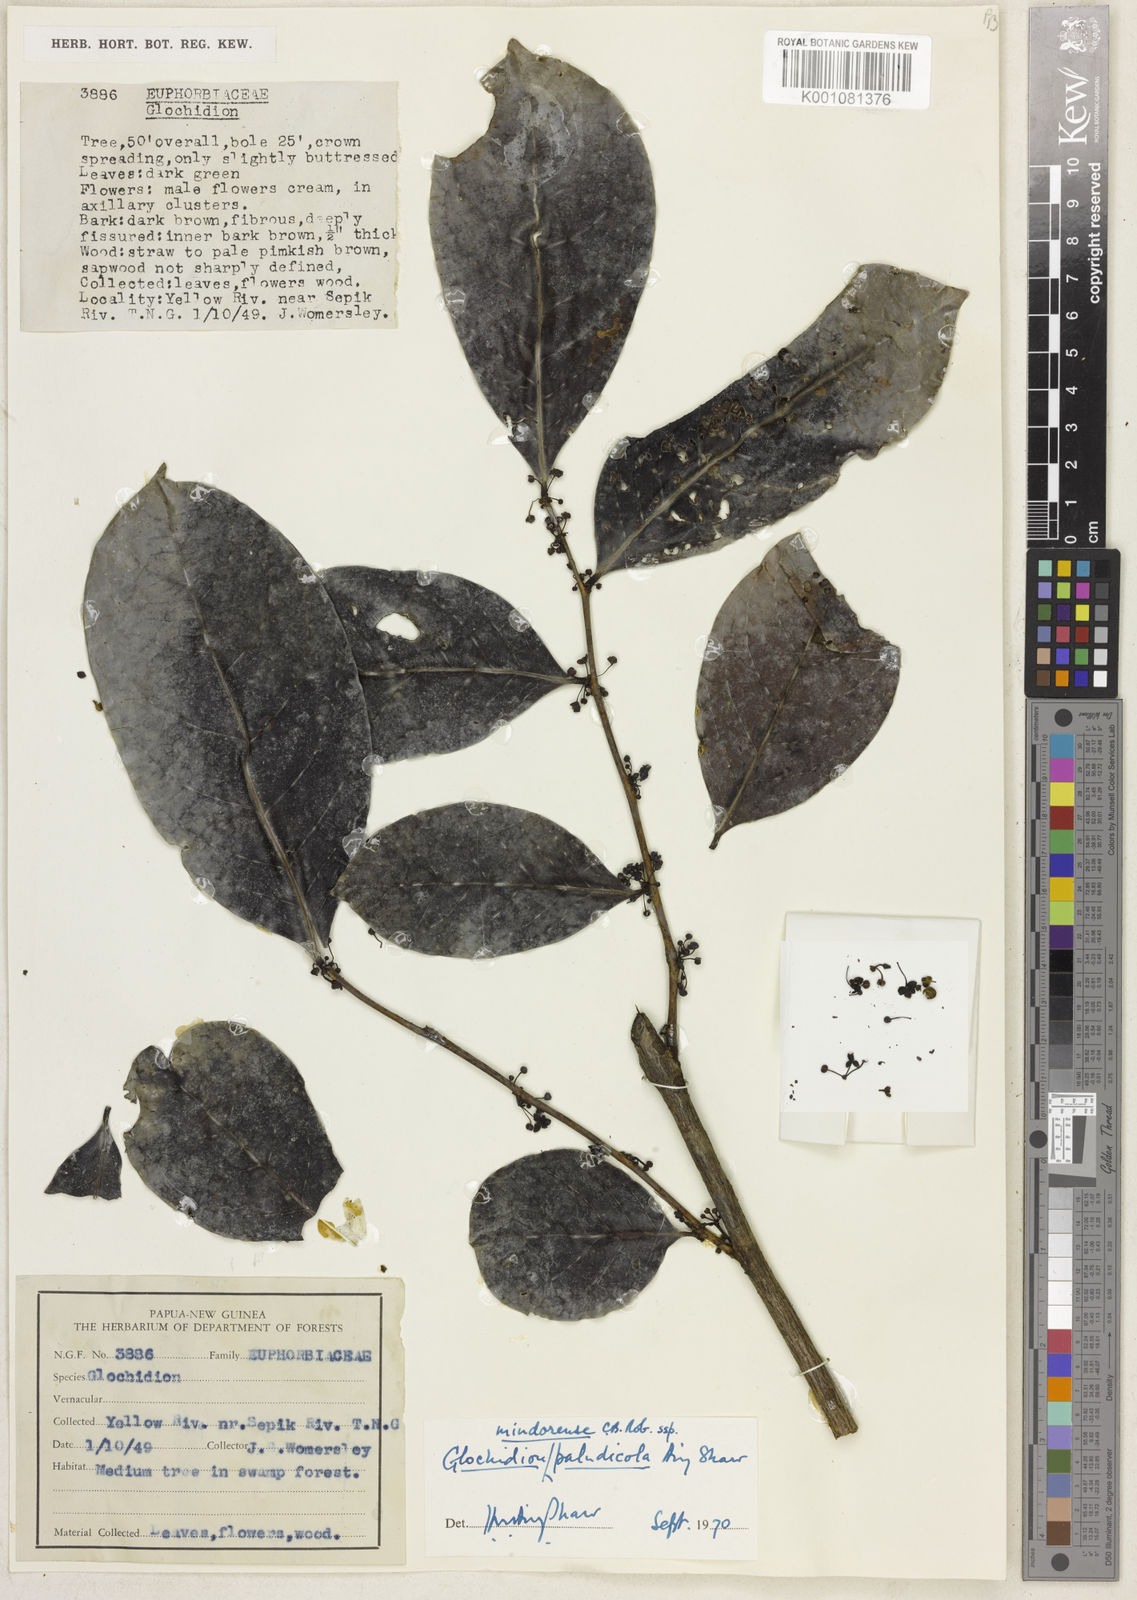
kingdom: Plantae
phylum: Tracheophyta
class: Magnoliopsida
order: Malpighiales
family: Phyllanthaceae
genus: Glochidion
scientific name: Glochidion paludicola
